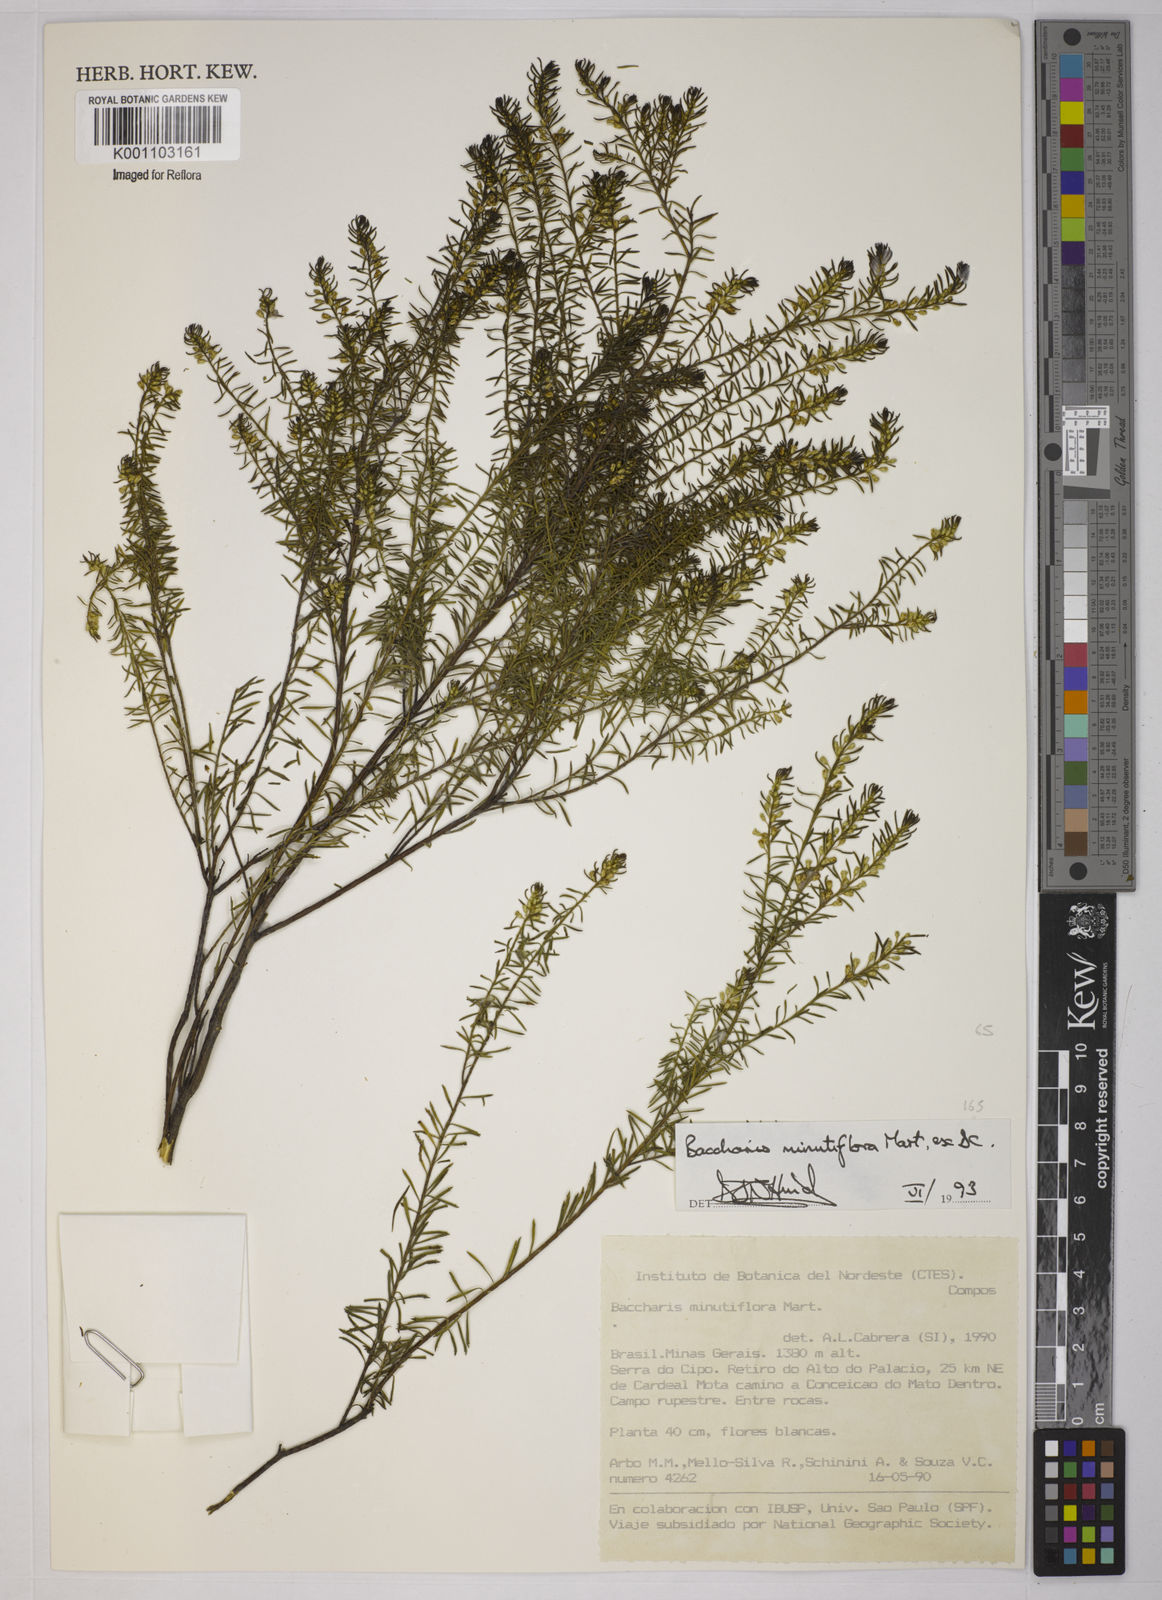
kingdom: Plantae
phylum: Tracheophyta
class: Magnoliopsida
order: Asterales
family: Asteraceae
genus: Baccharis
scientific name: Baccharis minutiflora
